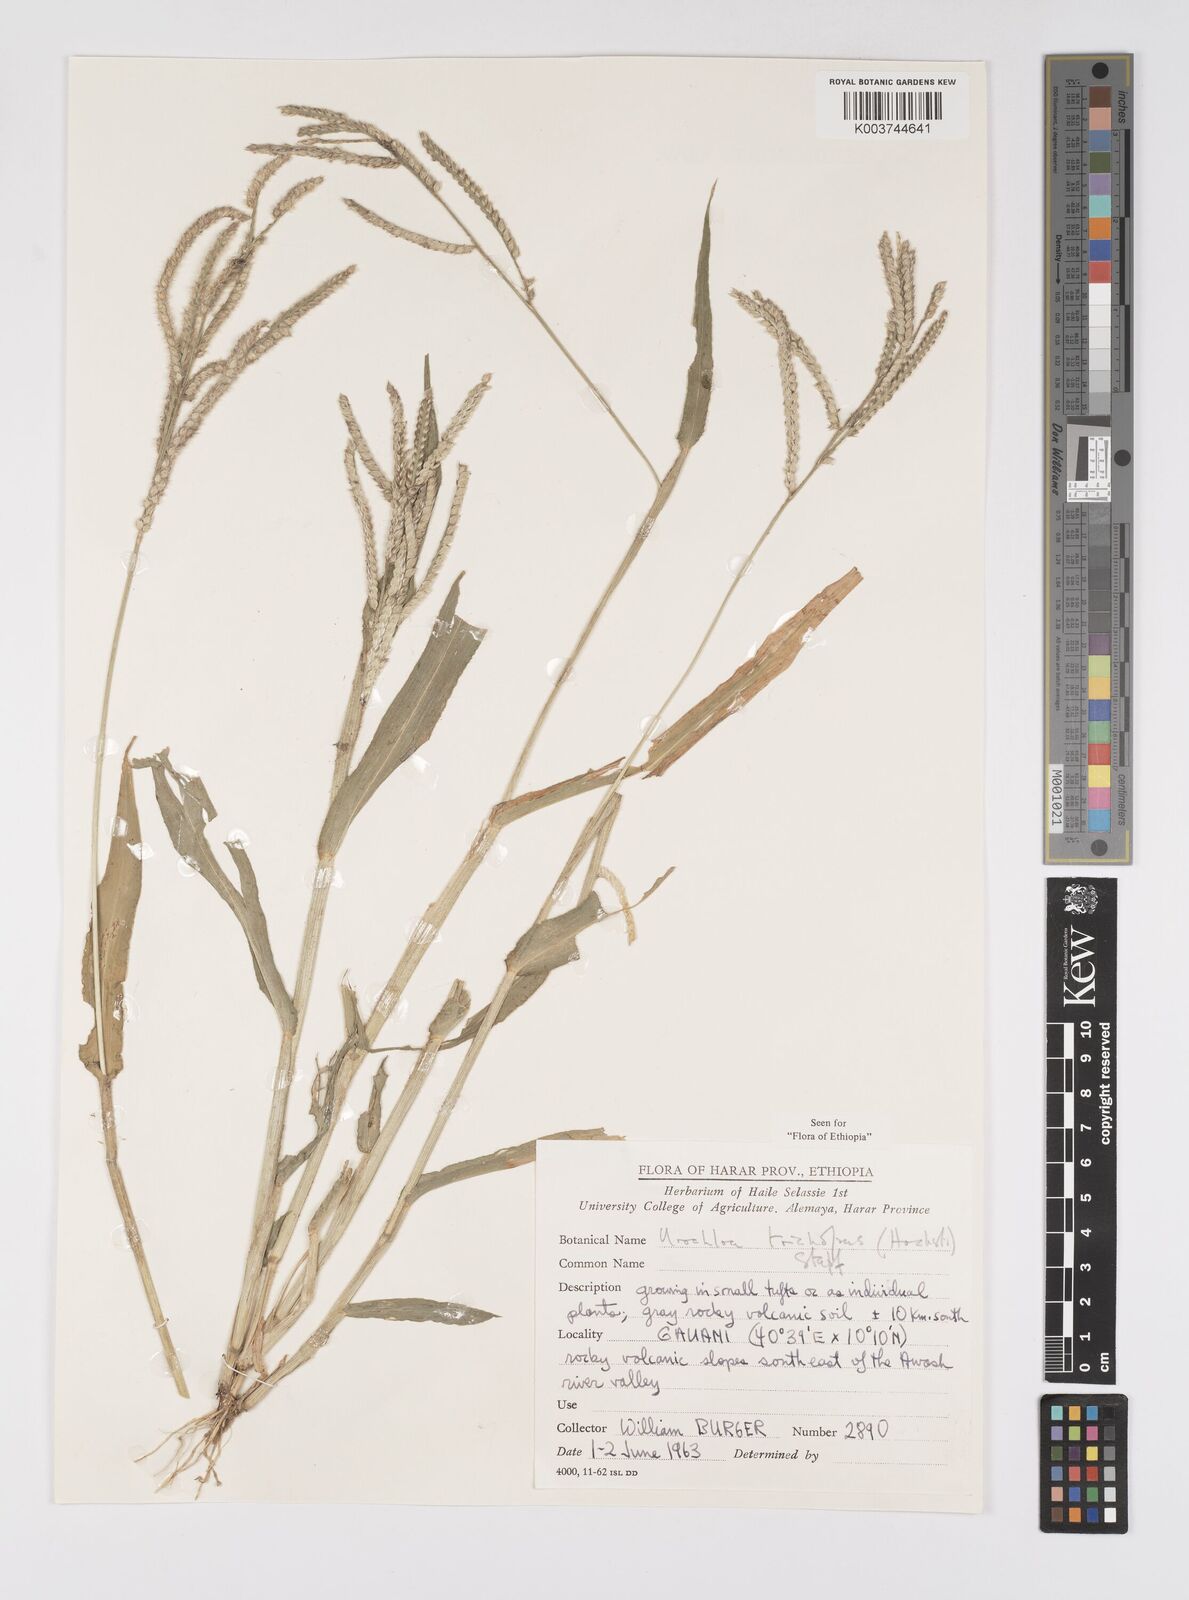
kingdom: Plantae
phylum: Tracheophyta
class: Liliopsida
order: Poales
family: Poaceae
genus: Urochloa
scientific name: Urochloa trichopus
